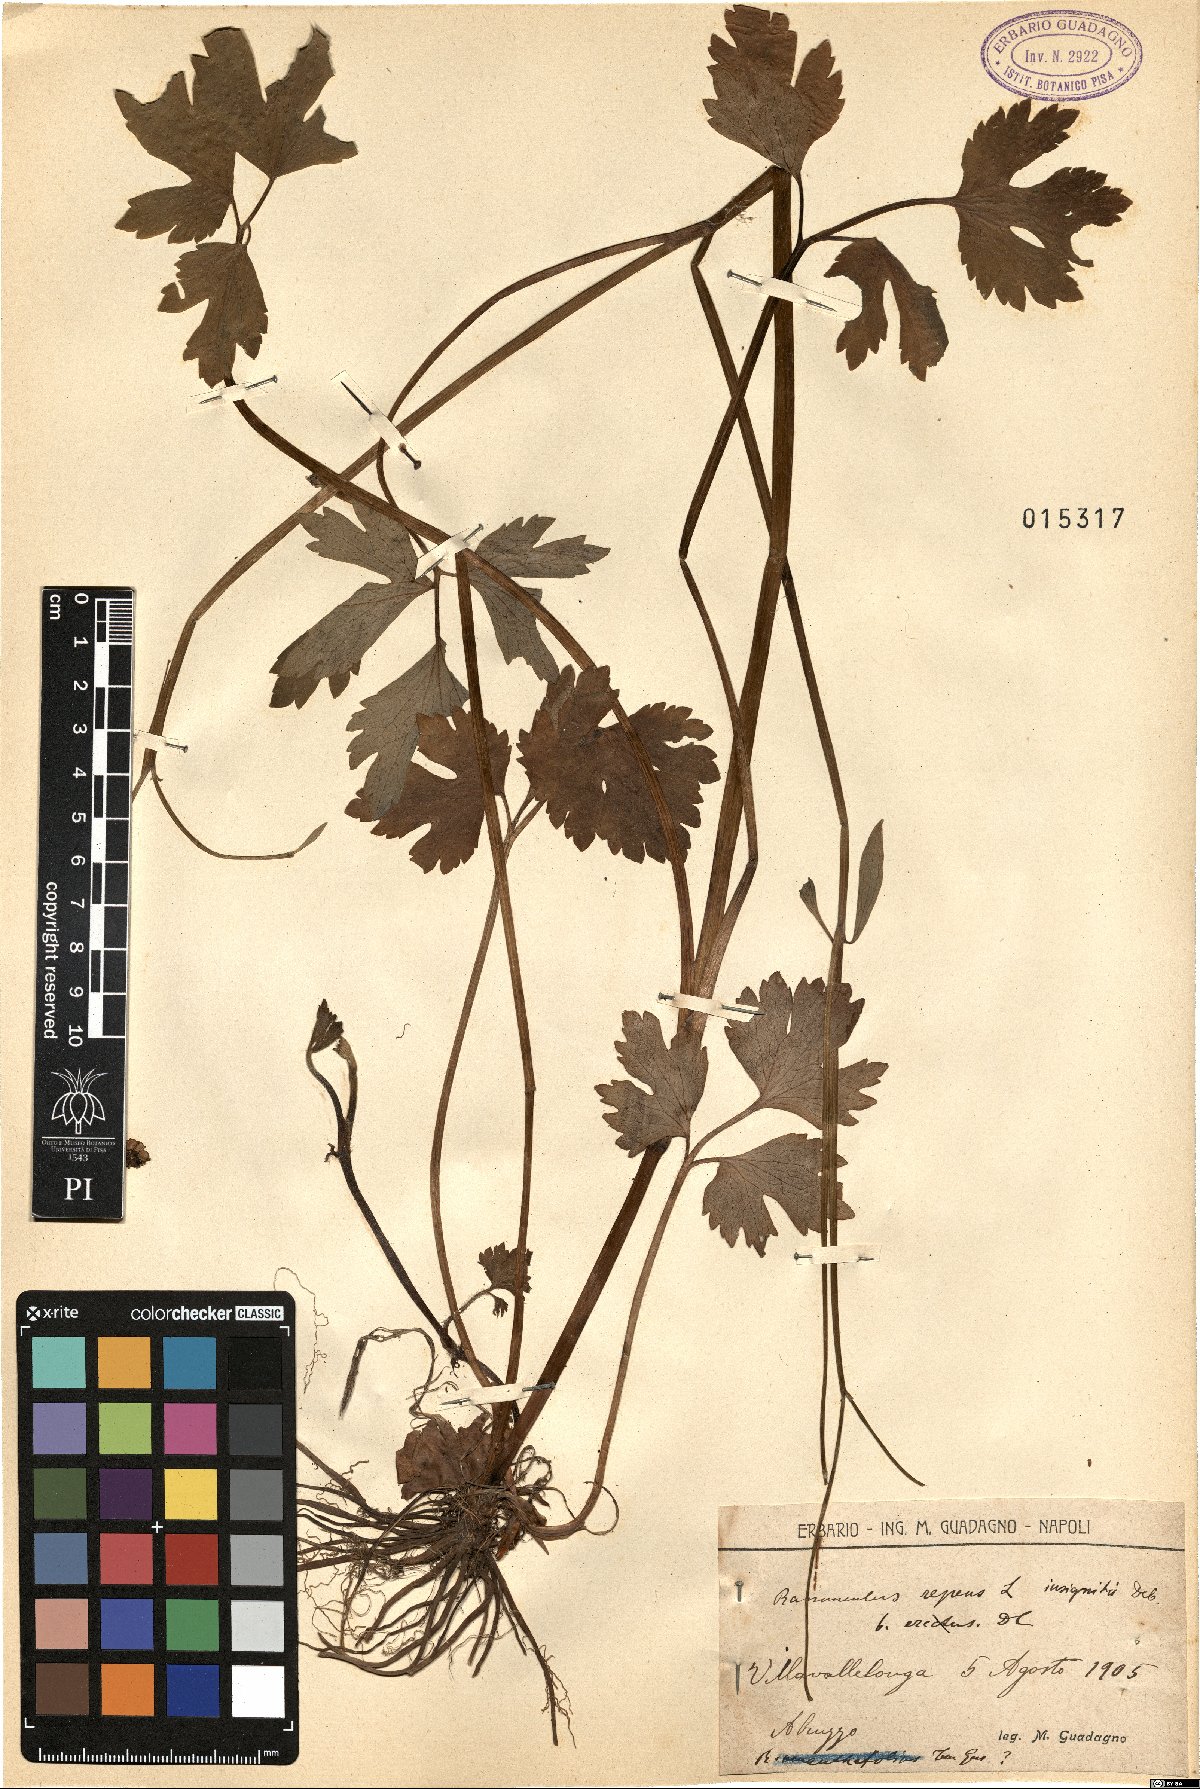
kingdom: Plantae
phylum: Tracheophyta
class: Magnoliopsida
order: Ranunculales
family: Ranunculaceae
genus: Ranunculus
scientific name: Ranunculus repens
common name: Creeping buttercup
